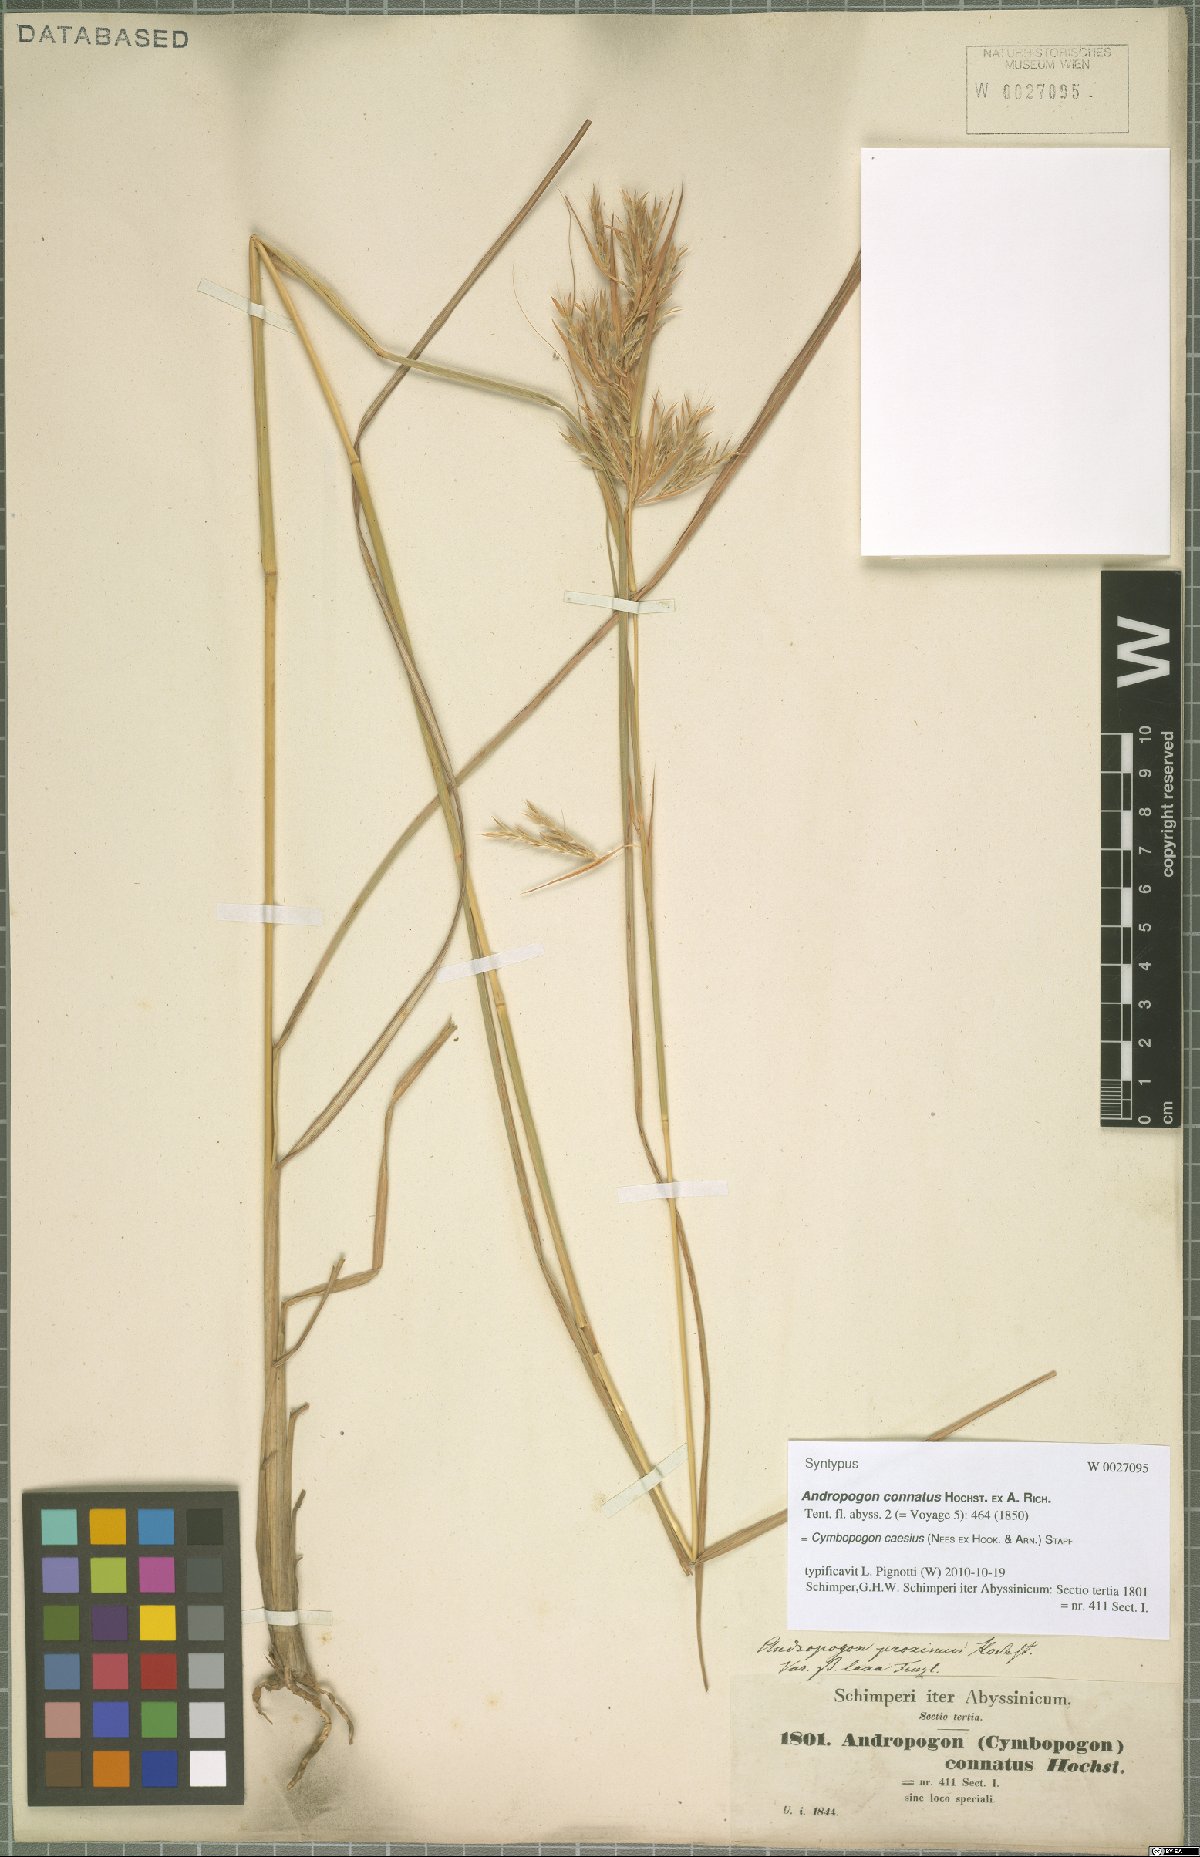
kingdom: Plantae
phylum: Tracheophyta
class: Liliopsida
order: Poales
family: Poaceae
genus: Cymbopogon
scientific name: Cymbopogon caesius
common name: Kachi grass
